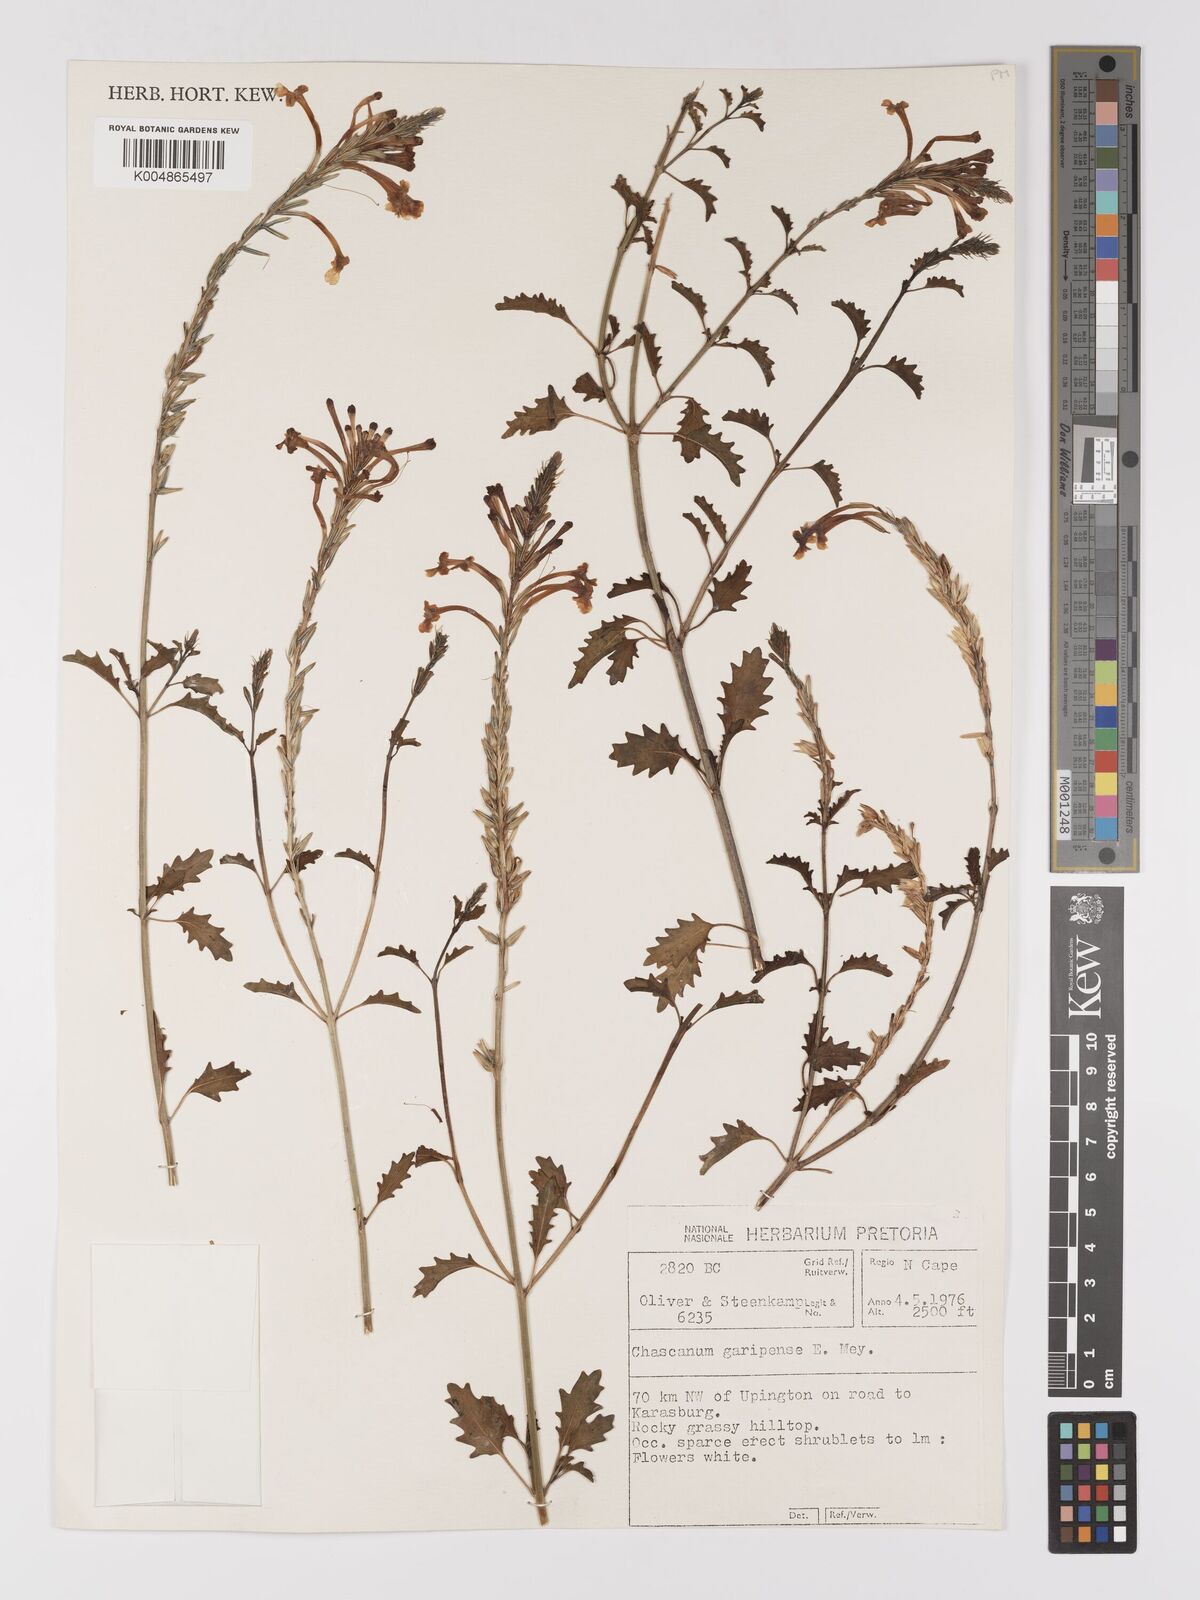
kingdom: Plantae
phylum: Tracheophyta
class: Magnoliopsida
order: Lamiales
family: Verbenaceae
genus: Chascanum
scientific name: Chascanum garipense
